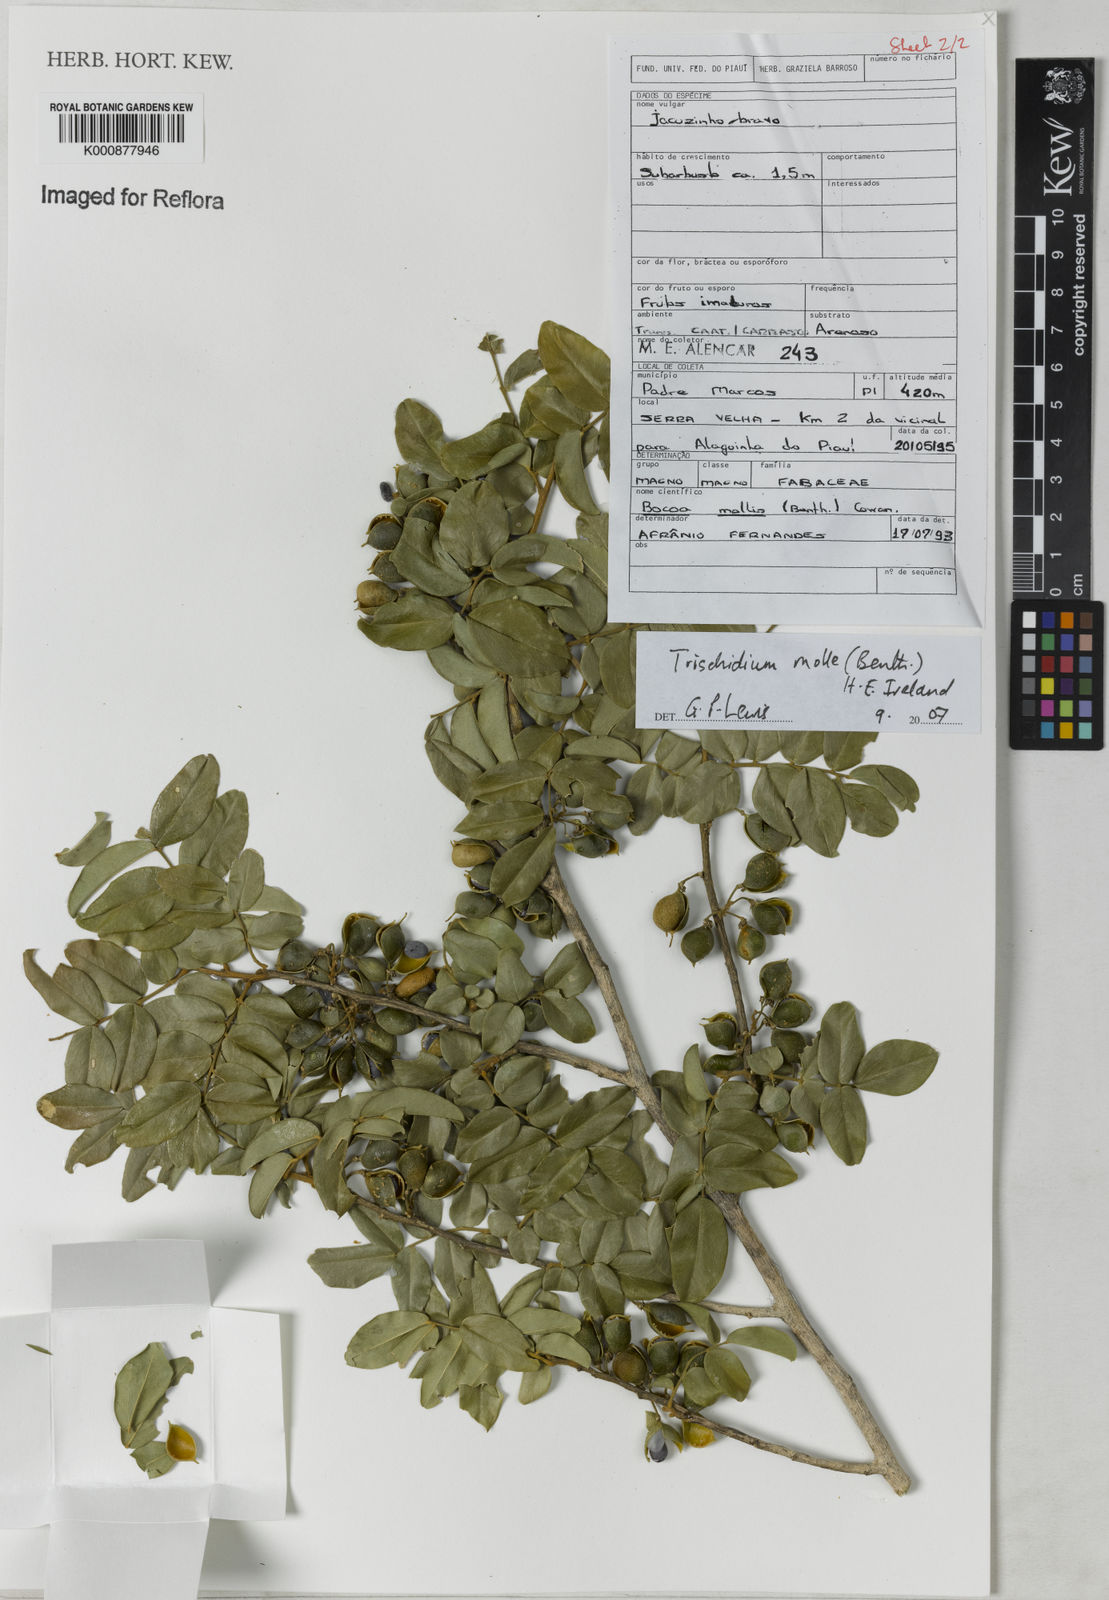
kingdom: Plantae
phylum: Tracheophyta
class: Magnoliopsida
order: Fabales
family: Fabaceae
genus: Trischidium
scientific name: Trischidium molle
